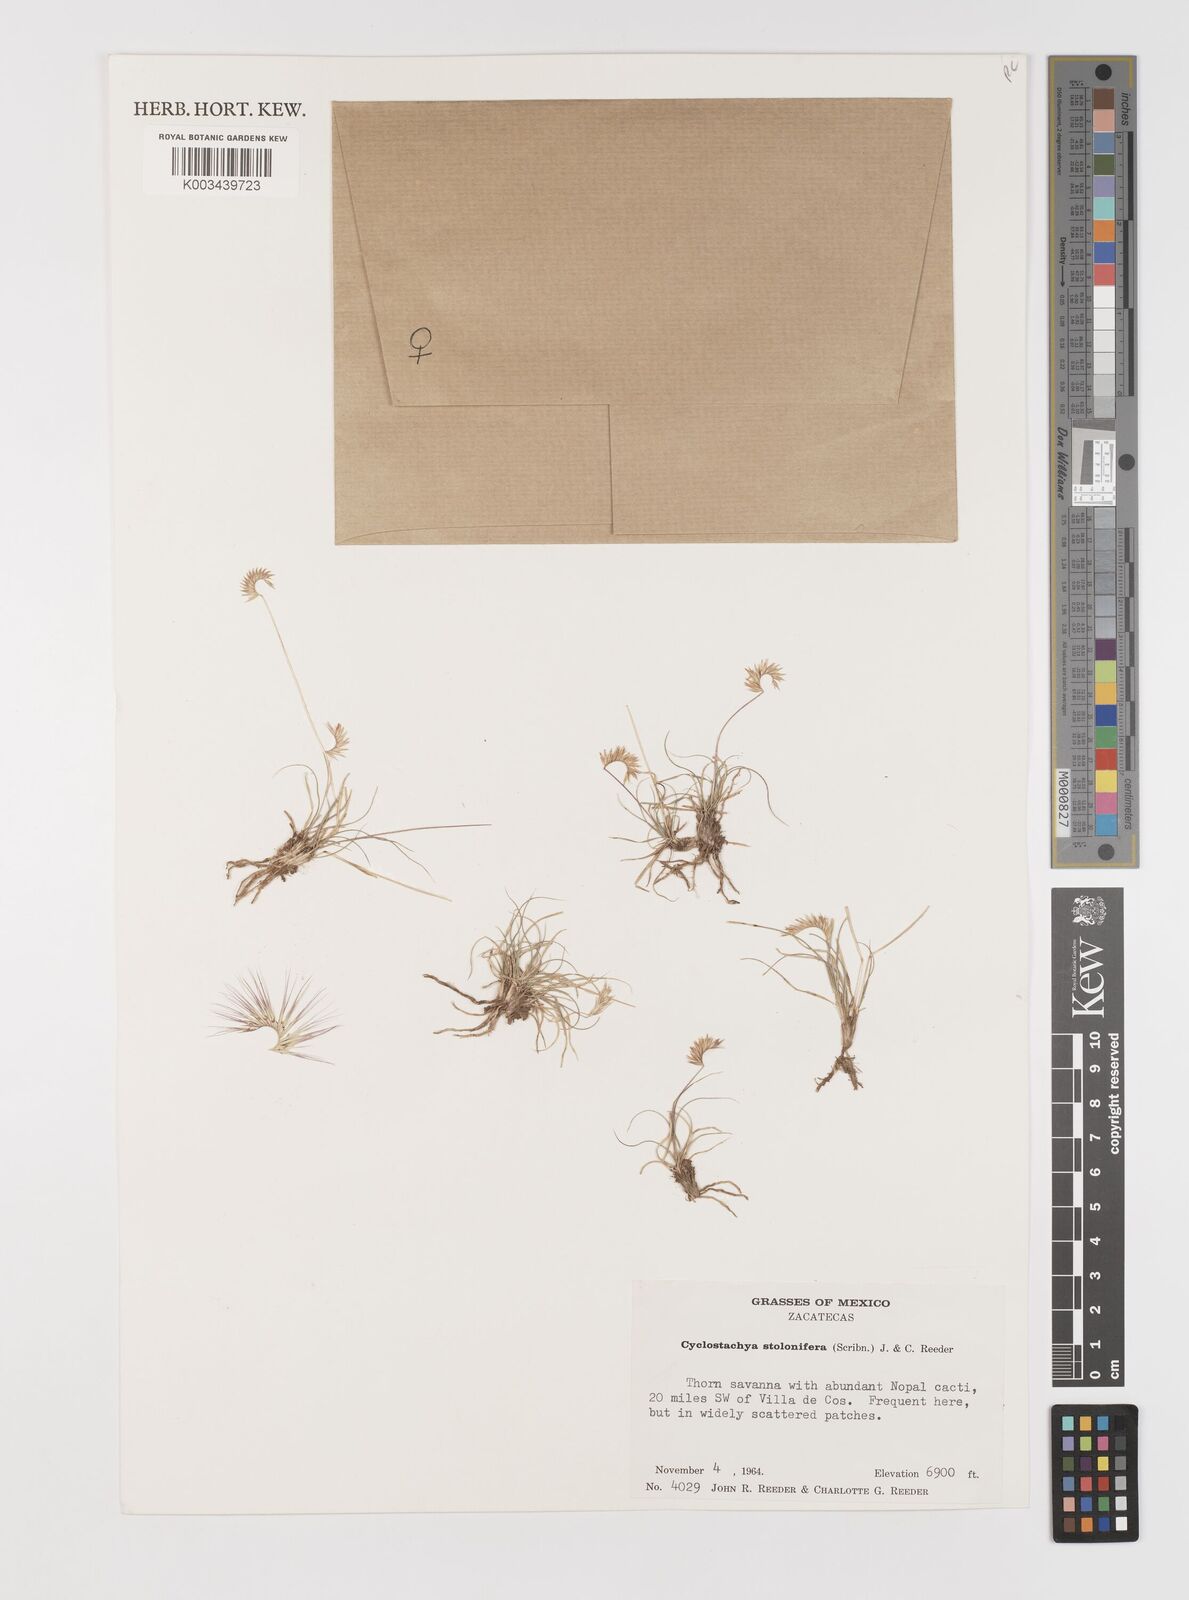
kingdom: Plantae
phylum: Tracheophyta
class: Liliopsida
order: Poales
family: Poaceae
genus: Bouteloua
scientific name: Bouteloua stolonifera
